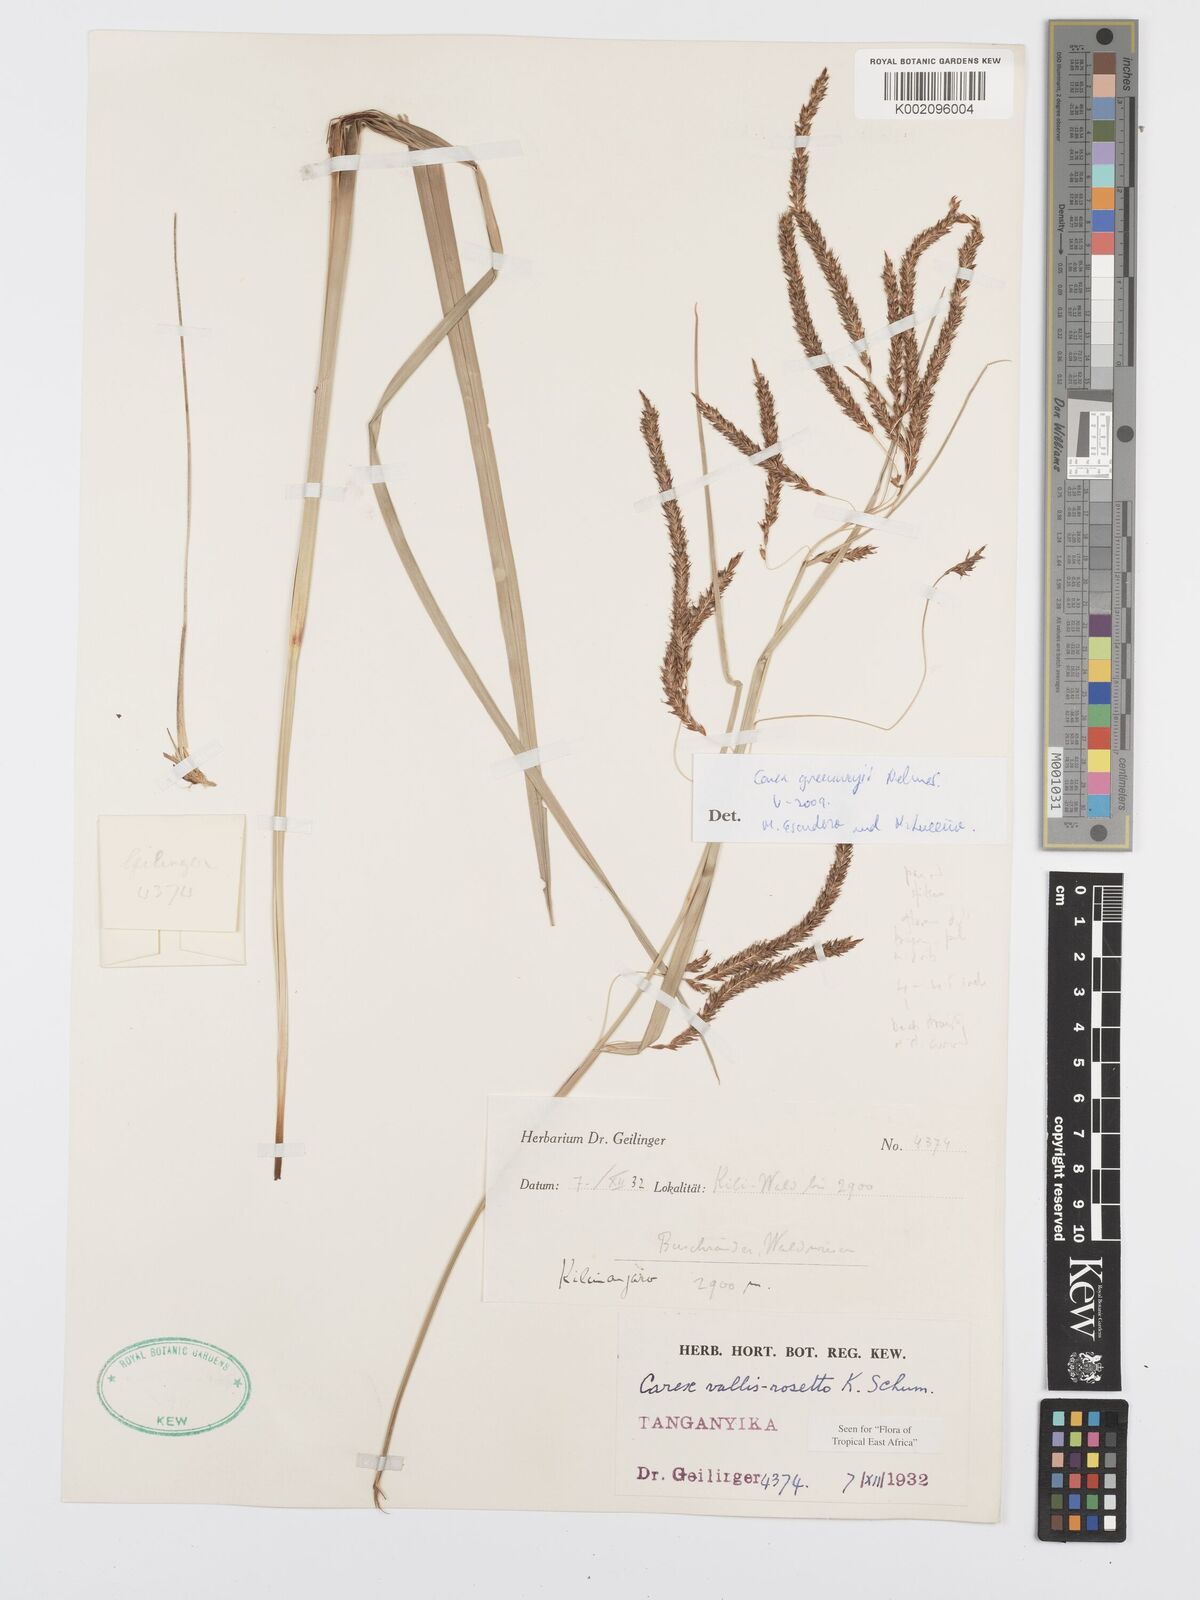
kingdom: Plantae
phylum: Tracheophyta
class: Liliopsida
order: Poales
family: Cyperaceae
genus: Carex
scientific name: Carex greenwayi
